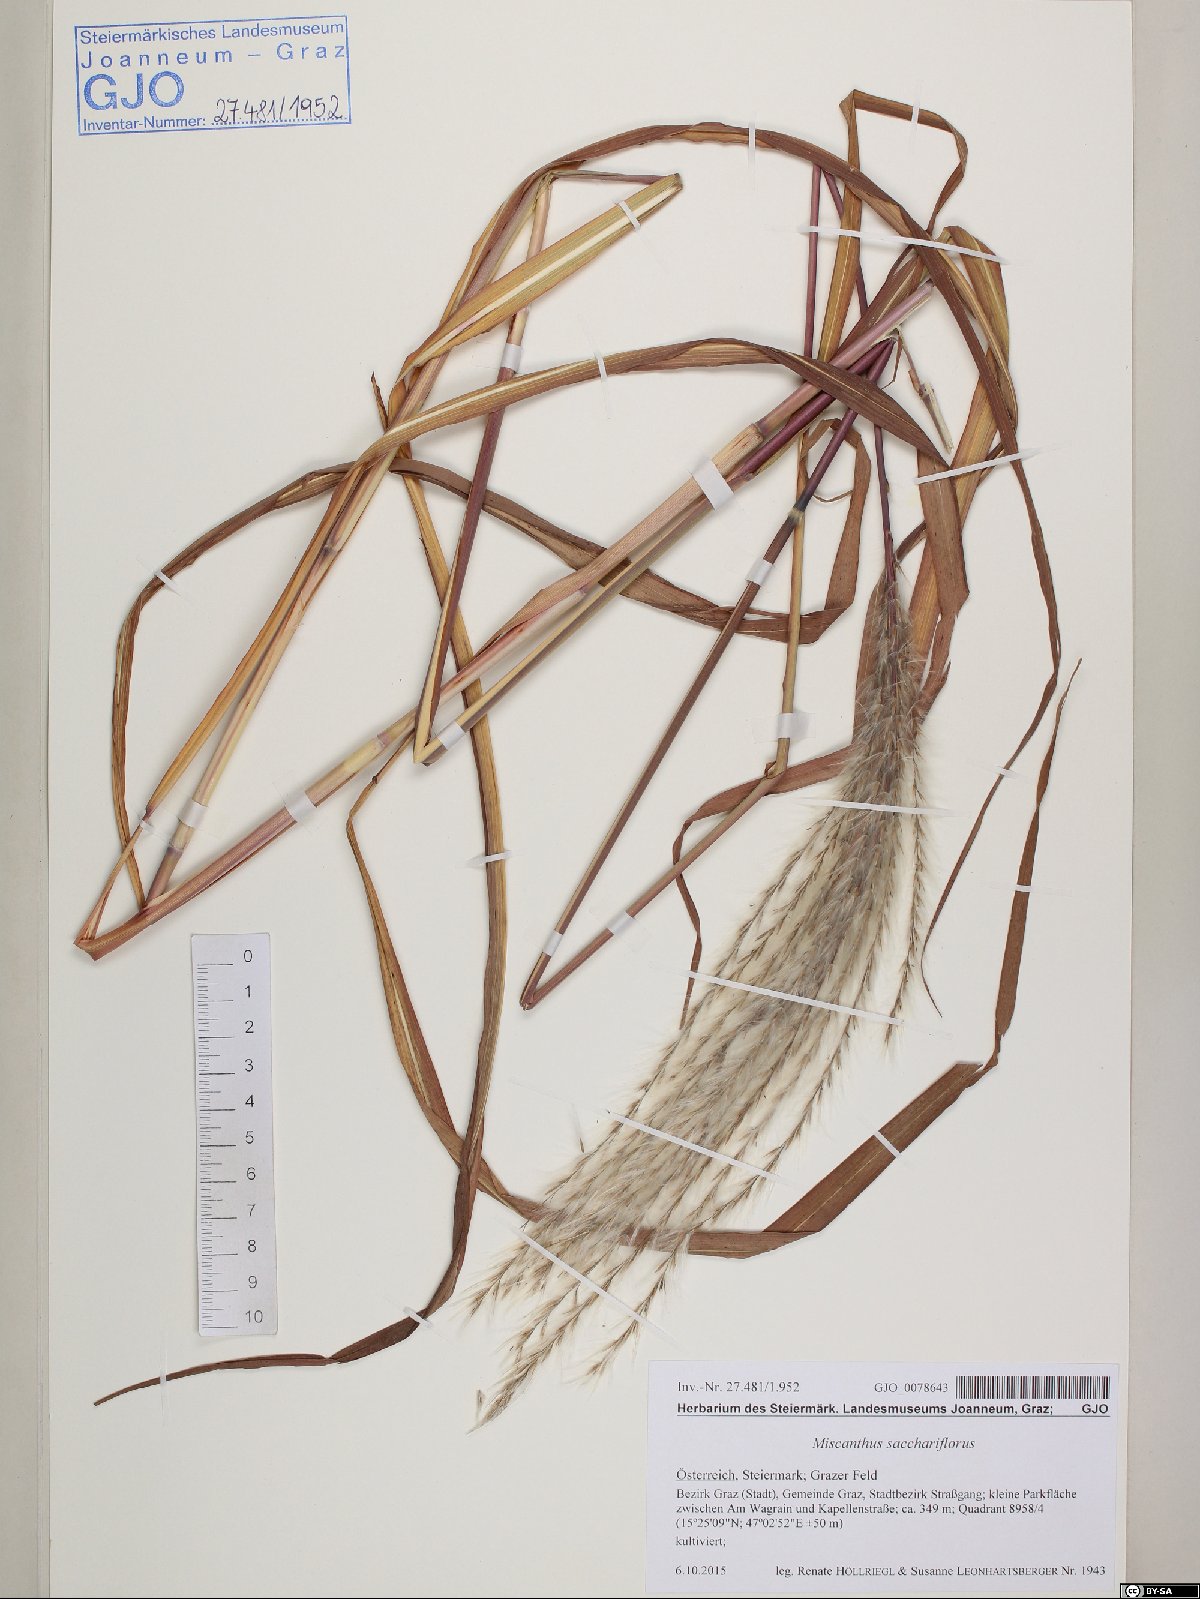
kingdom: Plantae
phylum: Tracheophyta
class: Liliopsida
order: Poales
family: Poaceae
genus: Miscanthus
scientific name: Miscanthus sacchariflorus
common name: Amur silver grass
